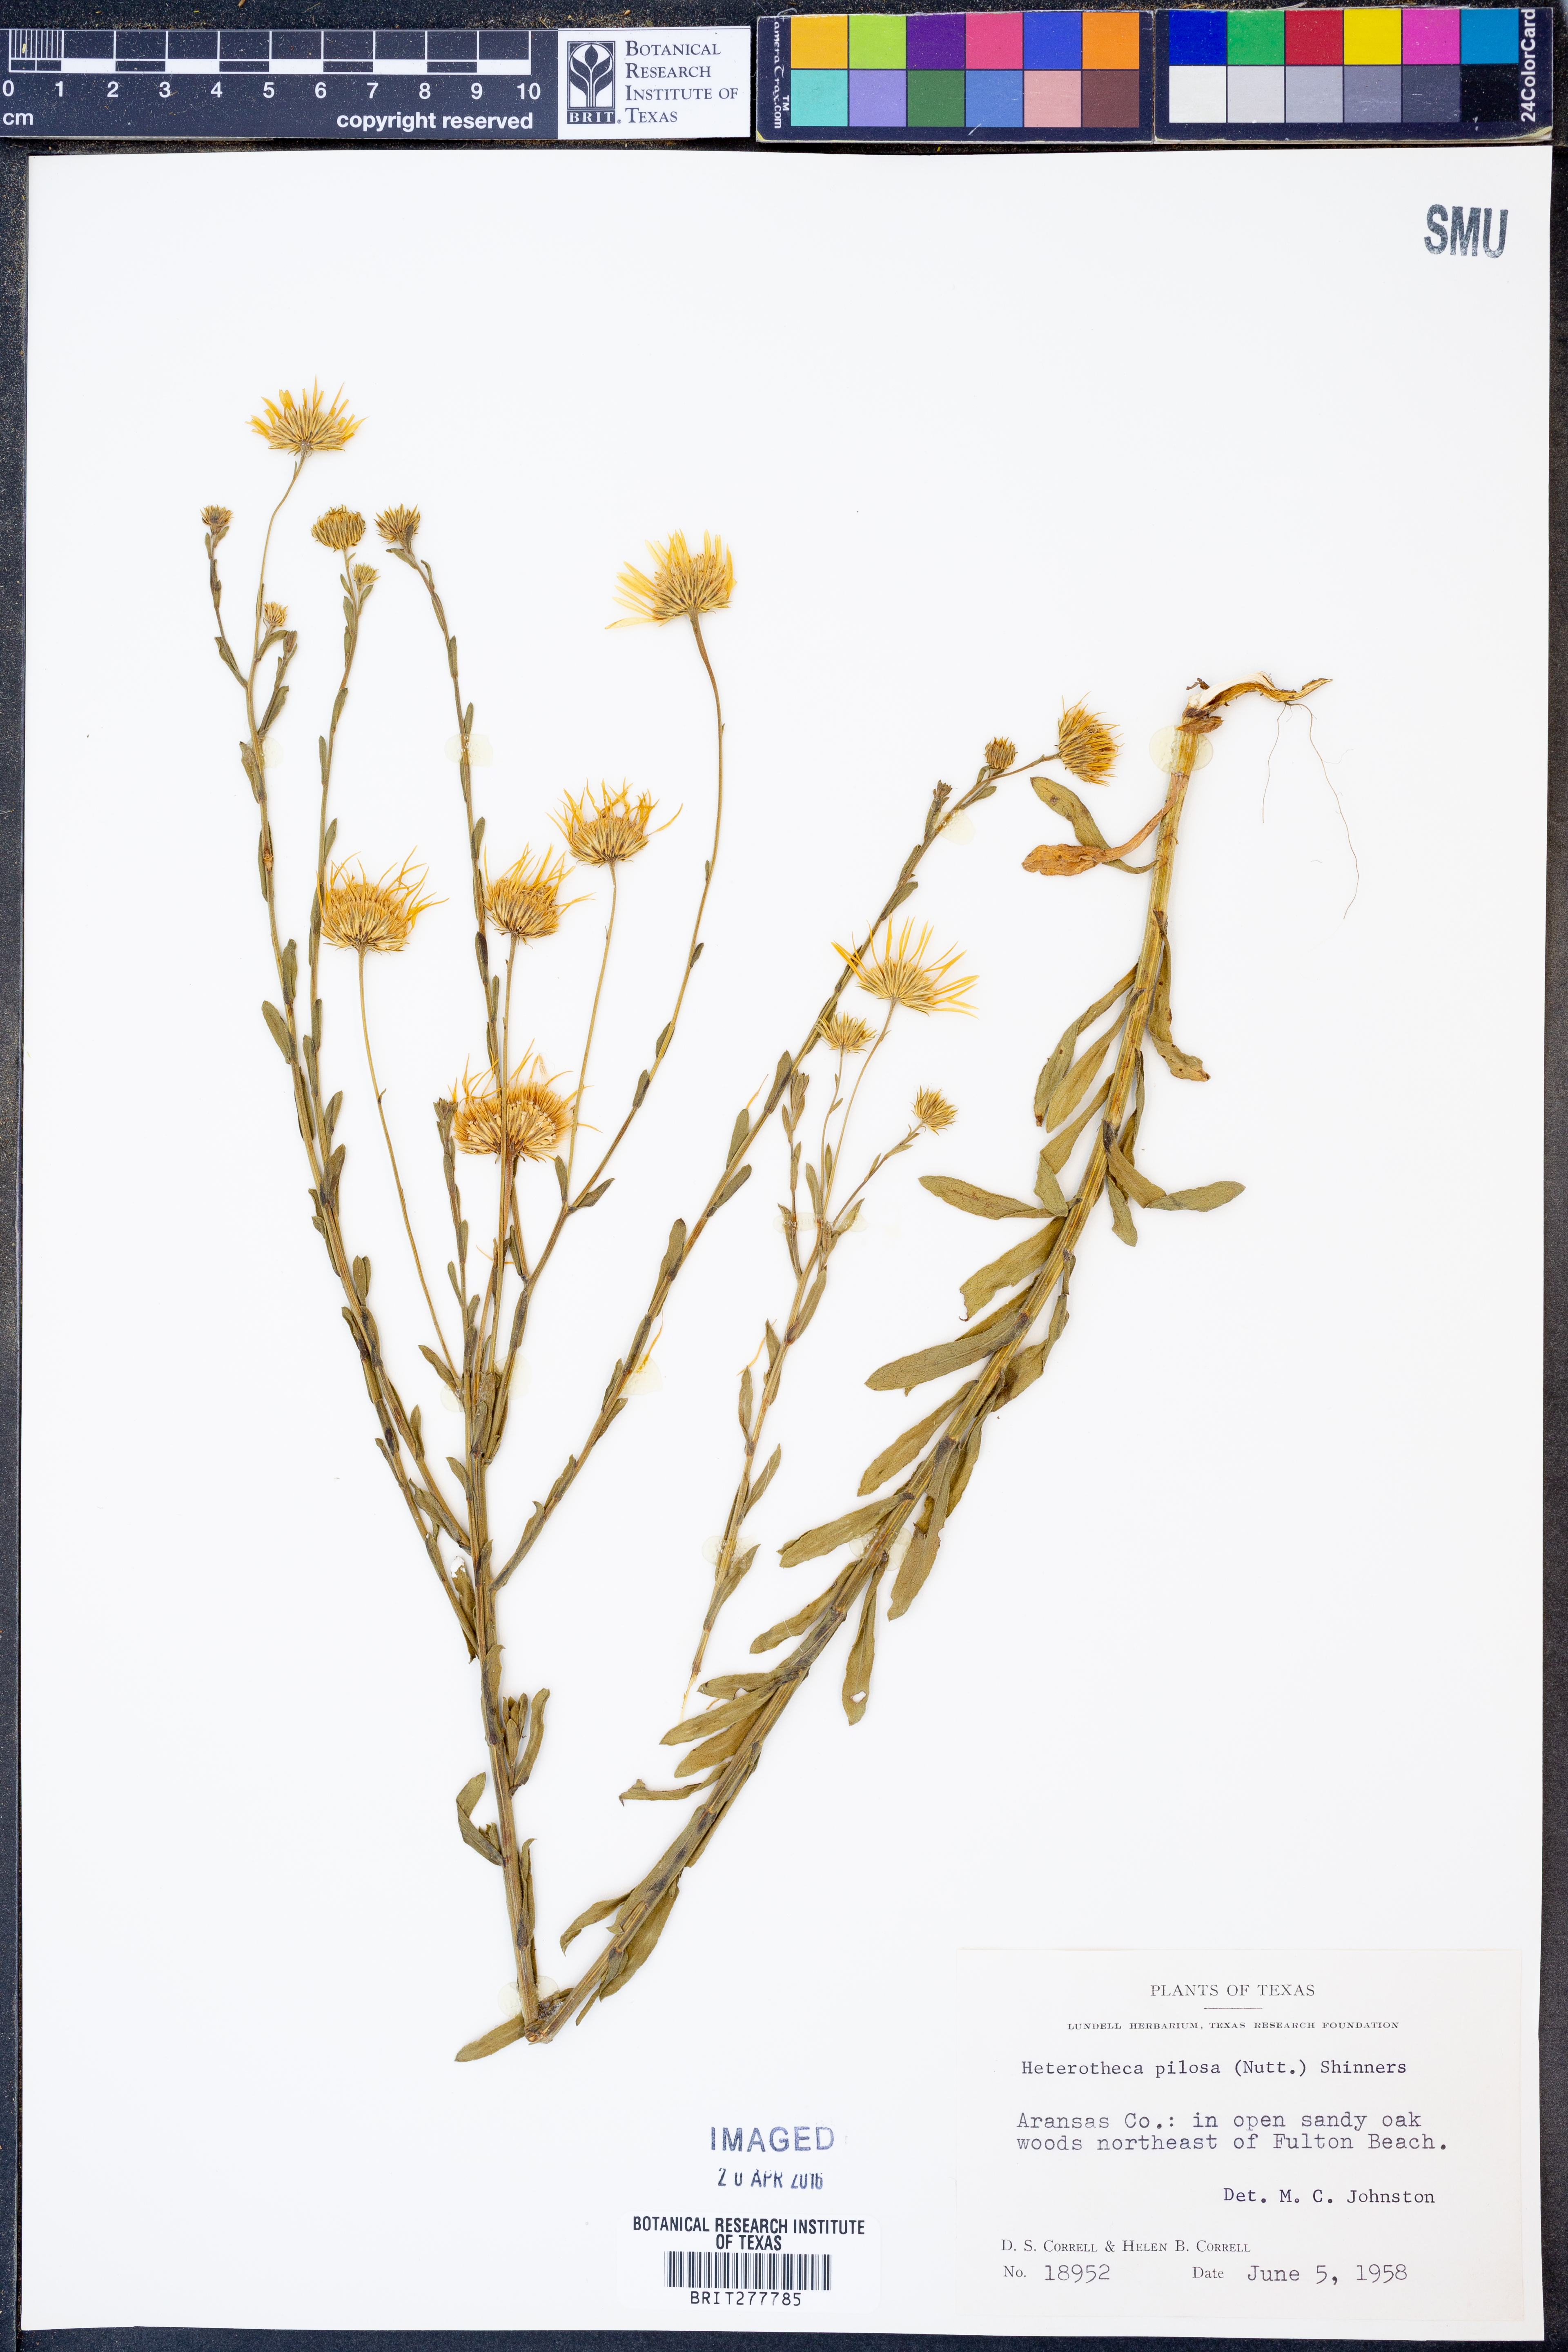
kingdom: Plantae
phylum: Tracheophyta
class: Magnoliopsida
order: Asterales
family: Asteraceae
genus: Bradburia
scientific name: Bradburia pilosa
